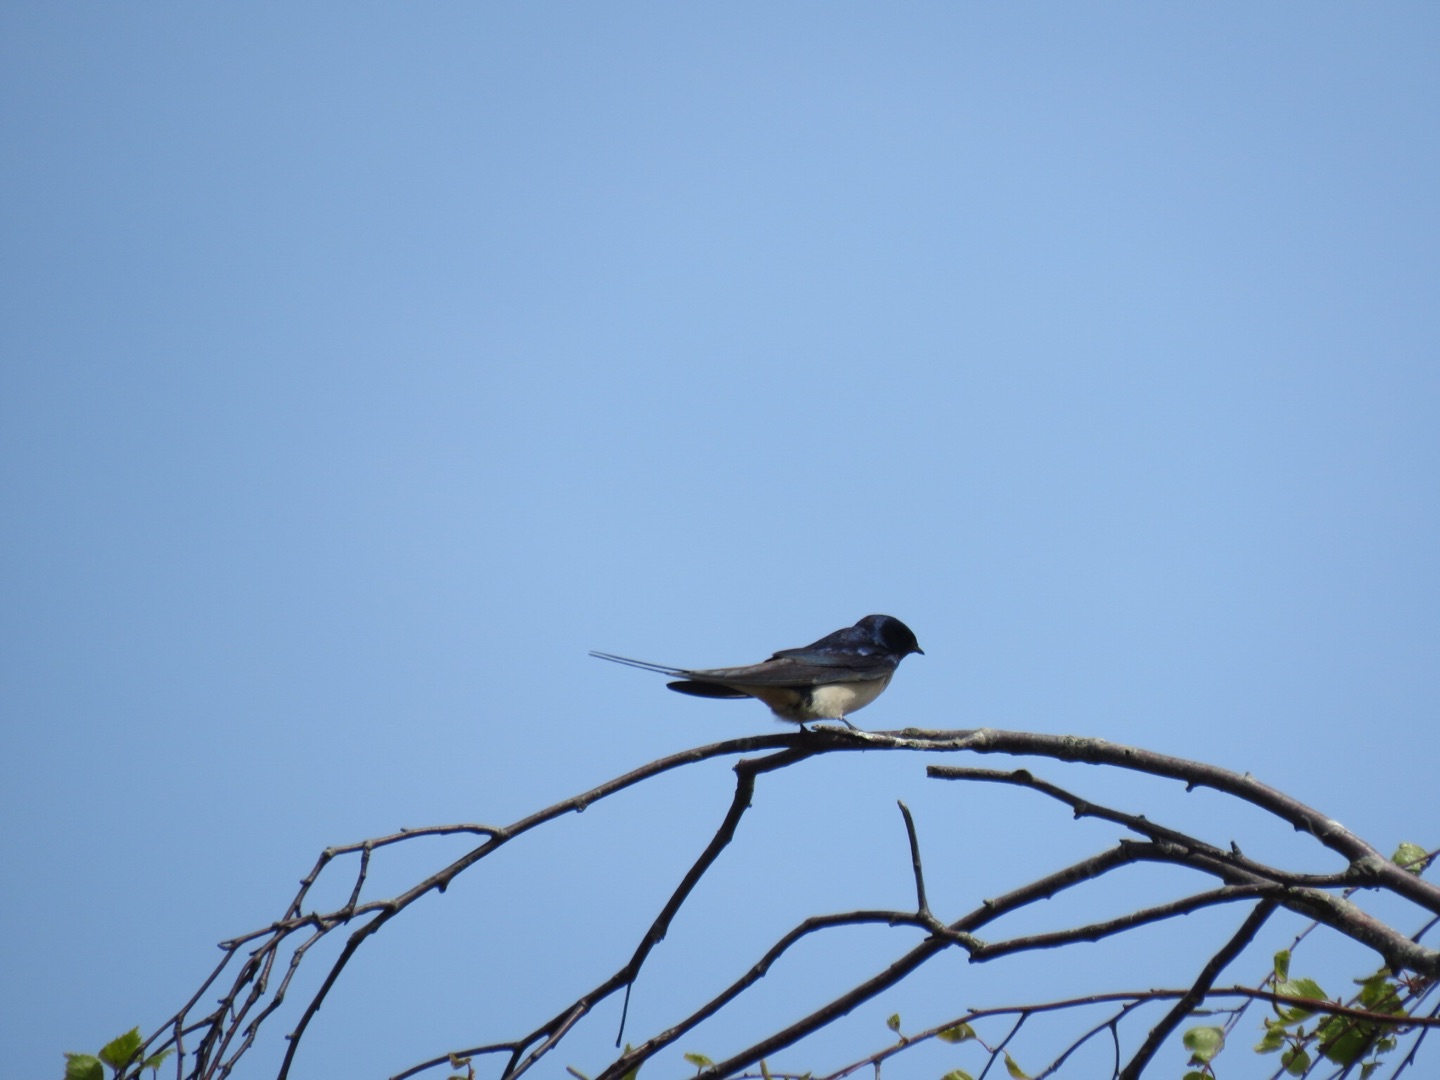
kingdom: Animalia
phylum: Chordata
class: Aves
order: Passeriformes
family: Hirundinidae
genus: Hirundo
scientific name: Hirundo rustica
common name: Landsvale
